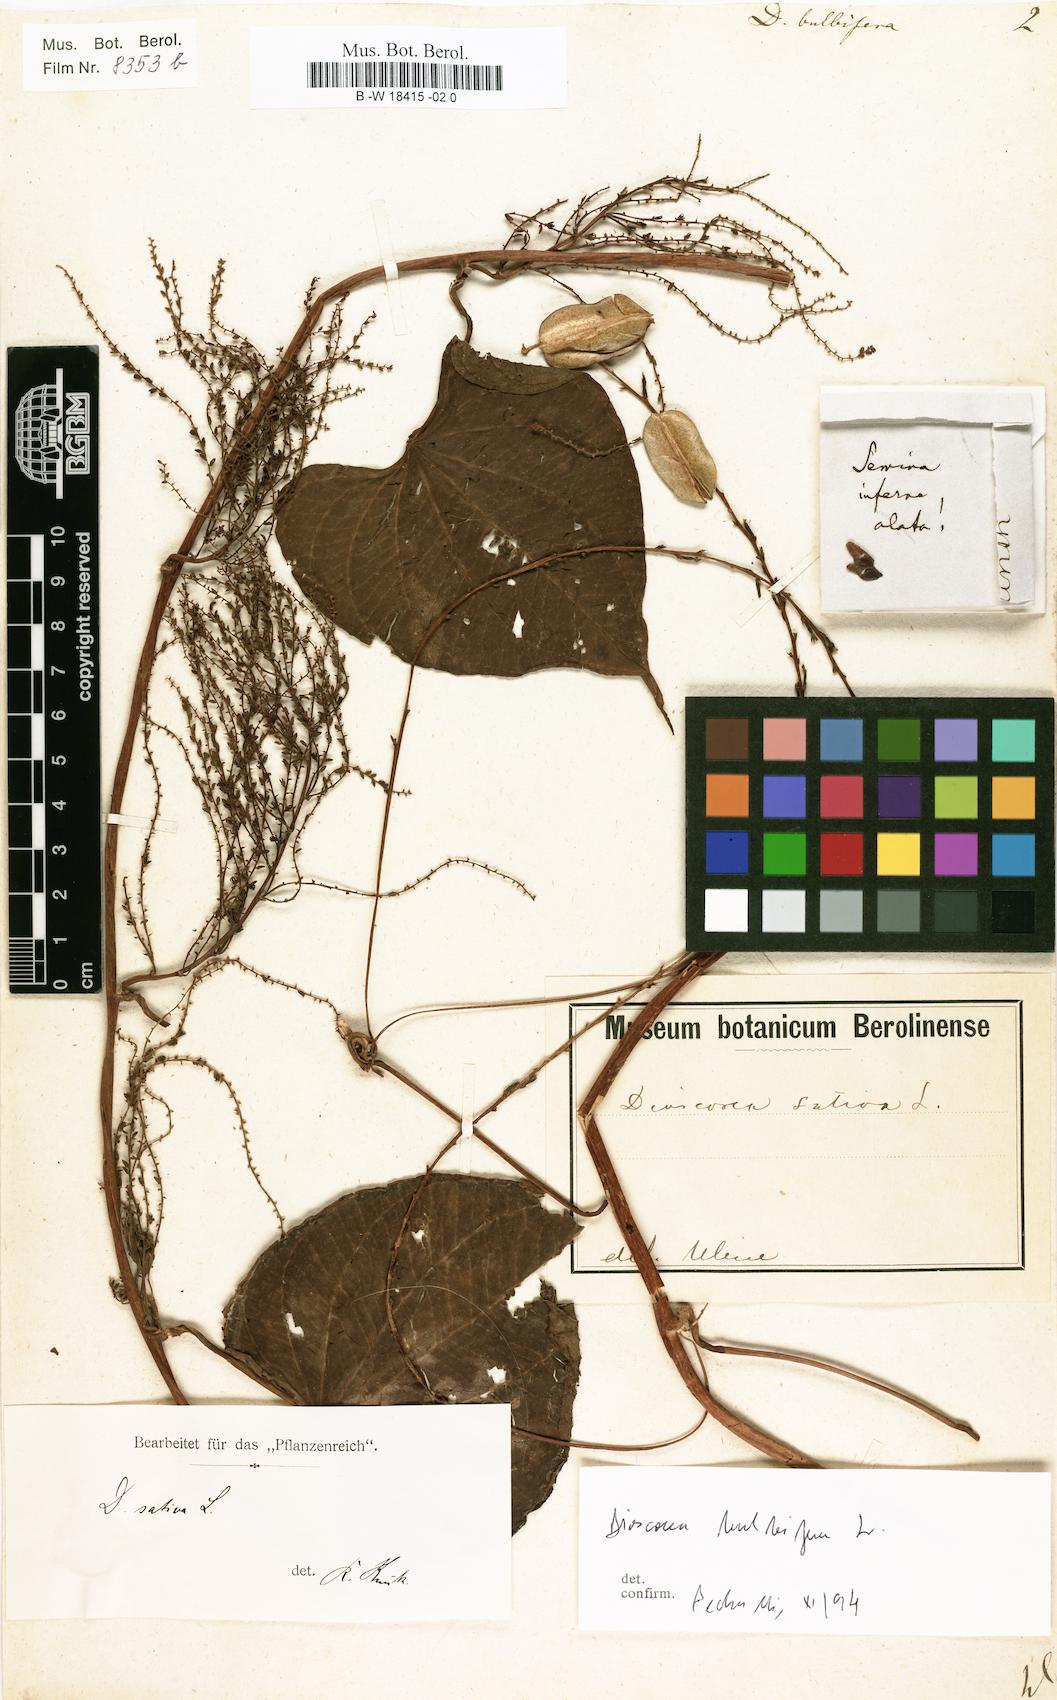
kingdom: Plantae
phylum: Tracheophyta
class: Liliopsida
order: Dioscoreales
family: Dioscoreaceae
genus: Dioscorea
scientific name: Dioscorea bulbifera
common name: Air yam
